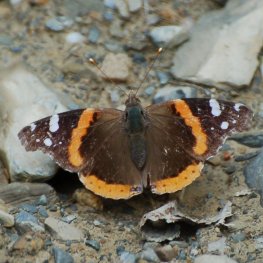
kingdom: Animalia
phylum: Arthropoda
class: Insecta
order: Lepidoptera
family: Nymphalidae
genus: Vanessa
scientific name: Vanessa atalanta
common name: Red Admiral
